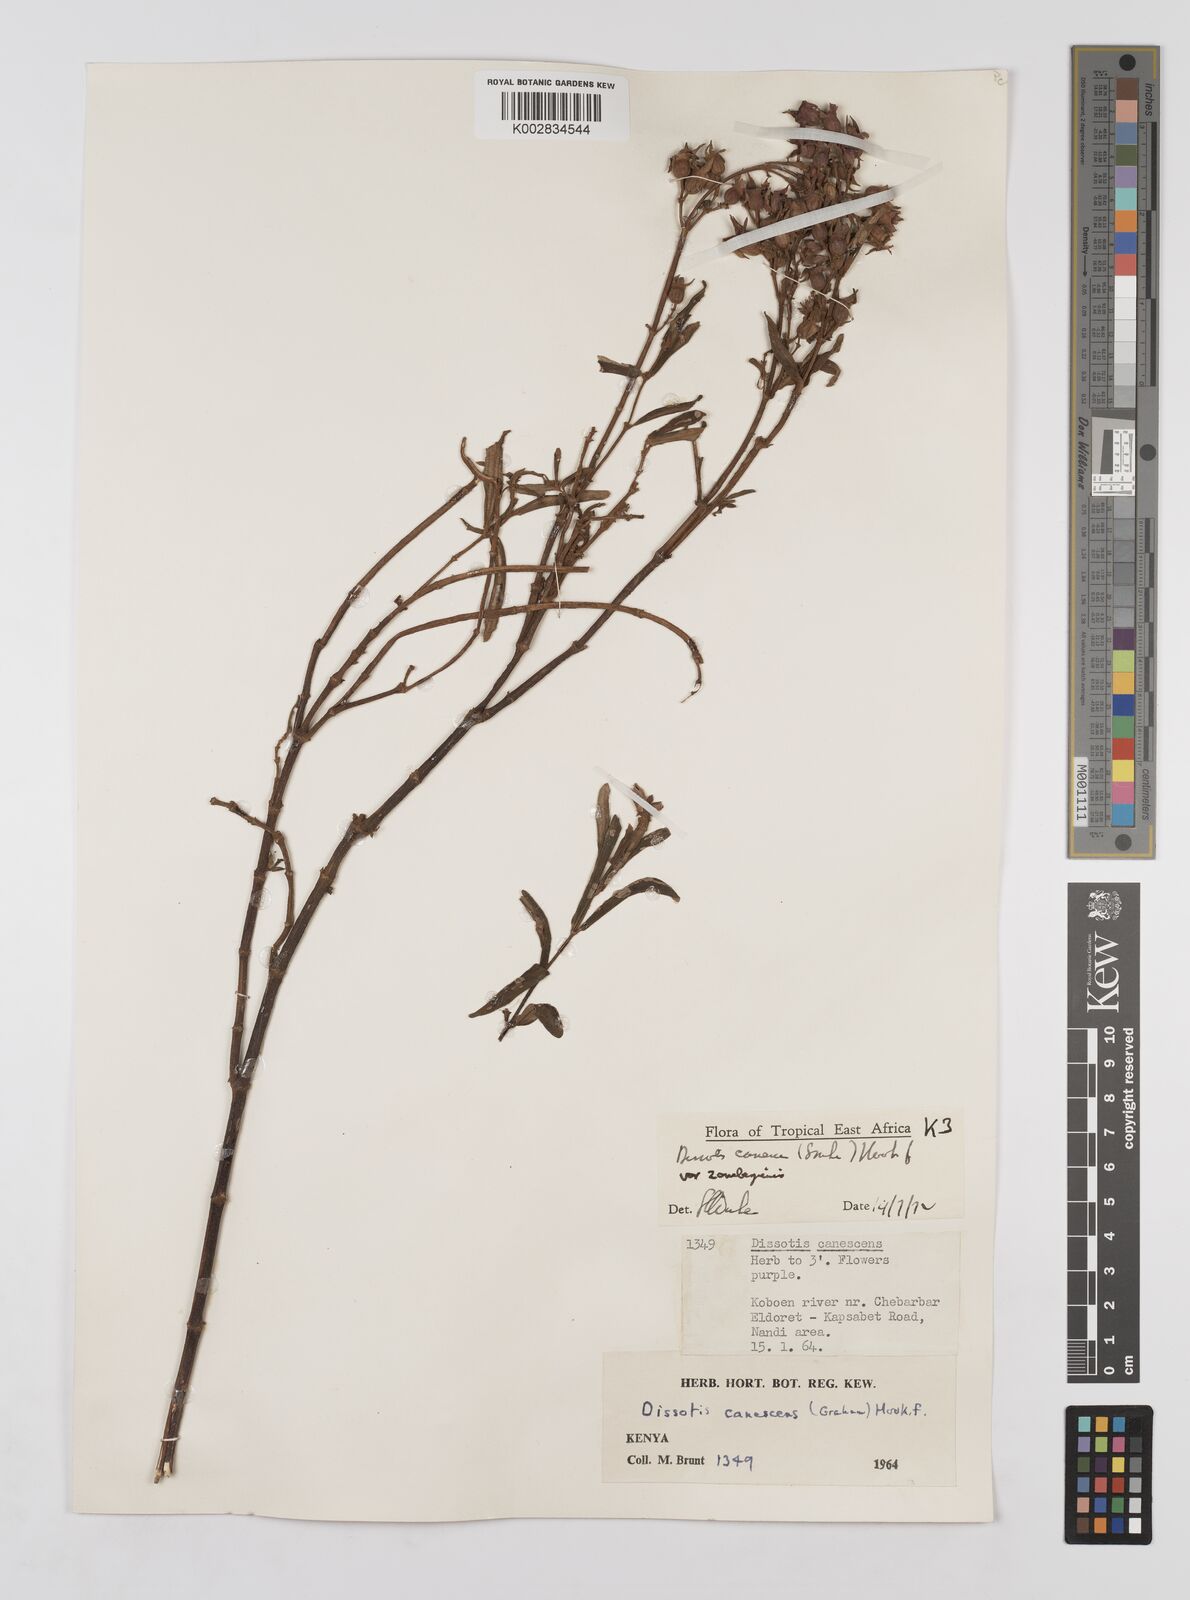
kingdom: Plantae
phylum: Tracheophyta
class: Magnoliopsida
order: Myrtales
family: Melastomataceae
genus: Argyrella
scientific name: Argyrella canescens
